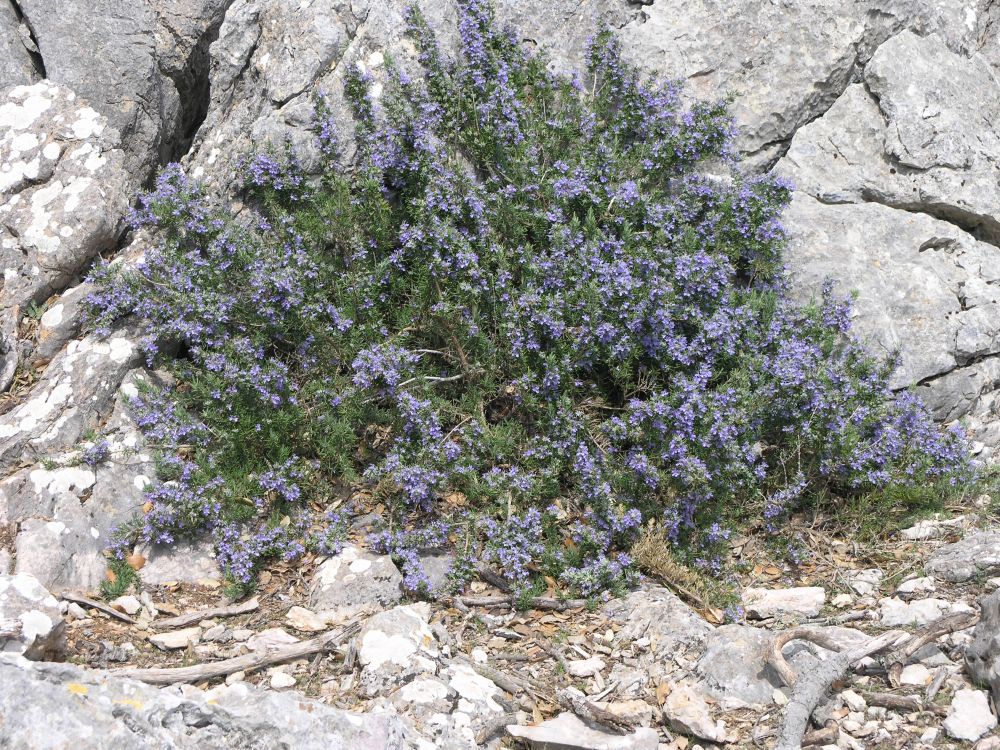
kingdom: Plantae
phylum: Tracheophyta
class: Magnoliopsida
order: Lamiales
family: Lamiaceae
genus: Salvia
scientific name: Salvia rosmarinus
